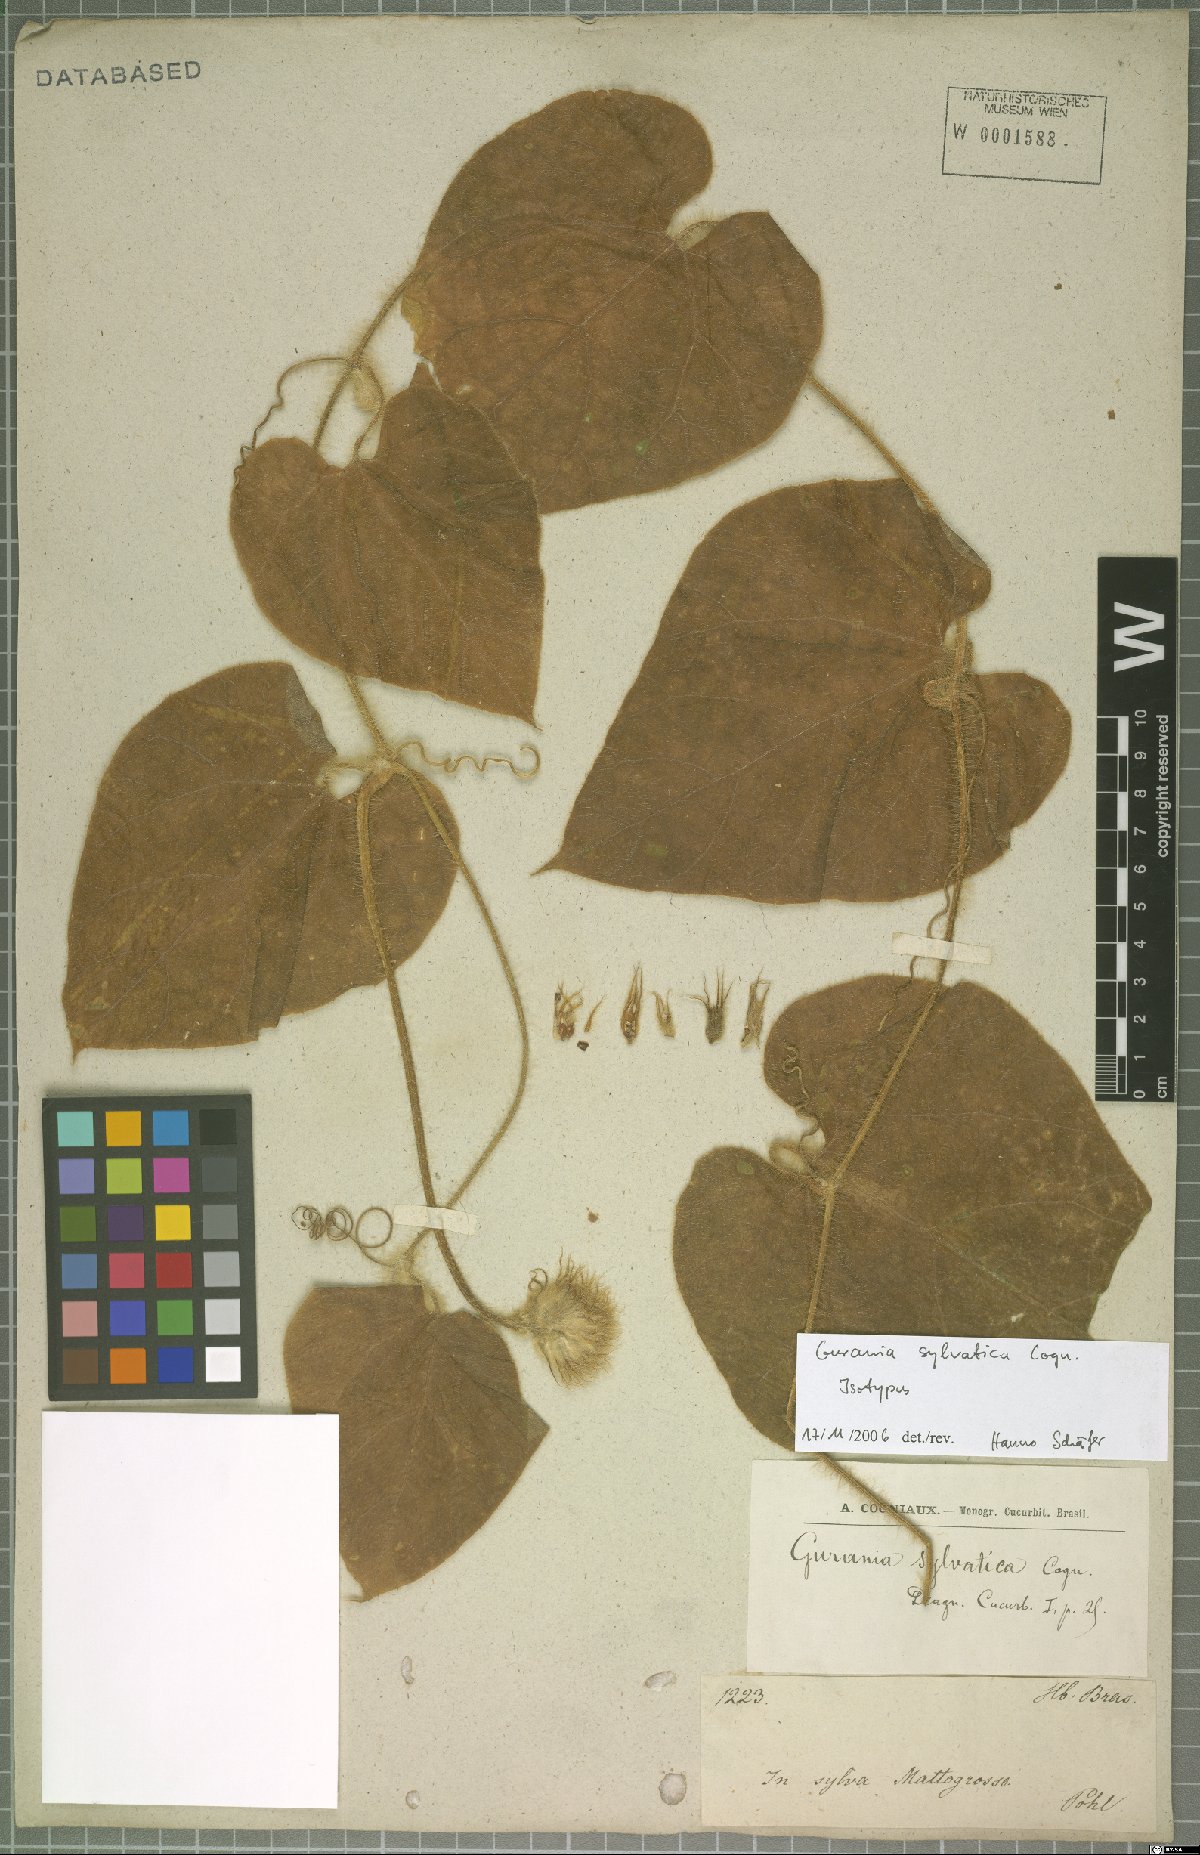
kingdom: Plantae
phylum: Tracheophyta
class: Magnoliopsida
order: Cucurbitales
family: Cucurbitaceae
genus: Gurania
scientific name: Gurania eriantha
